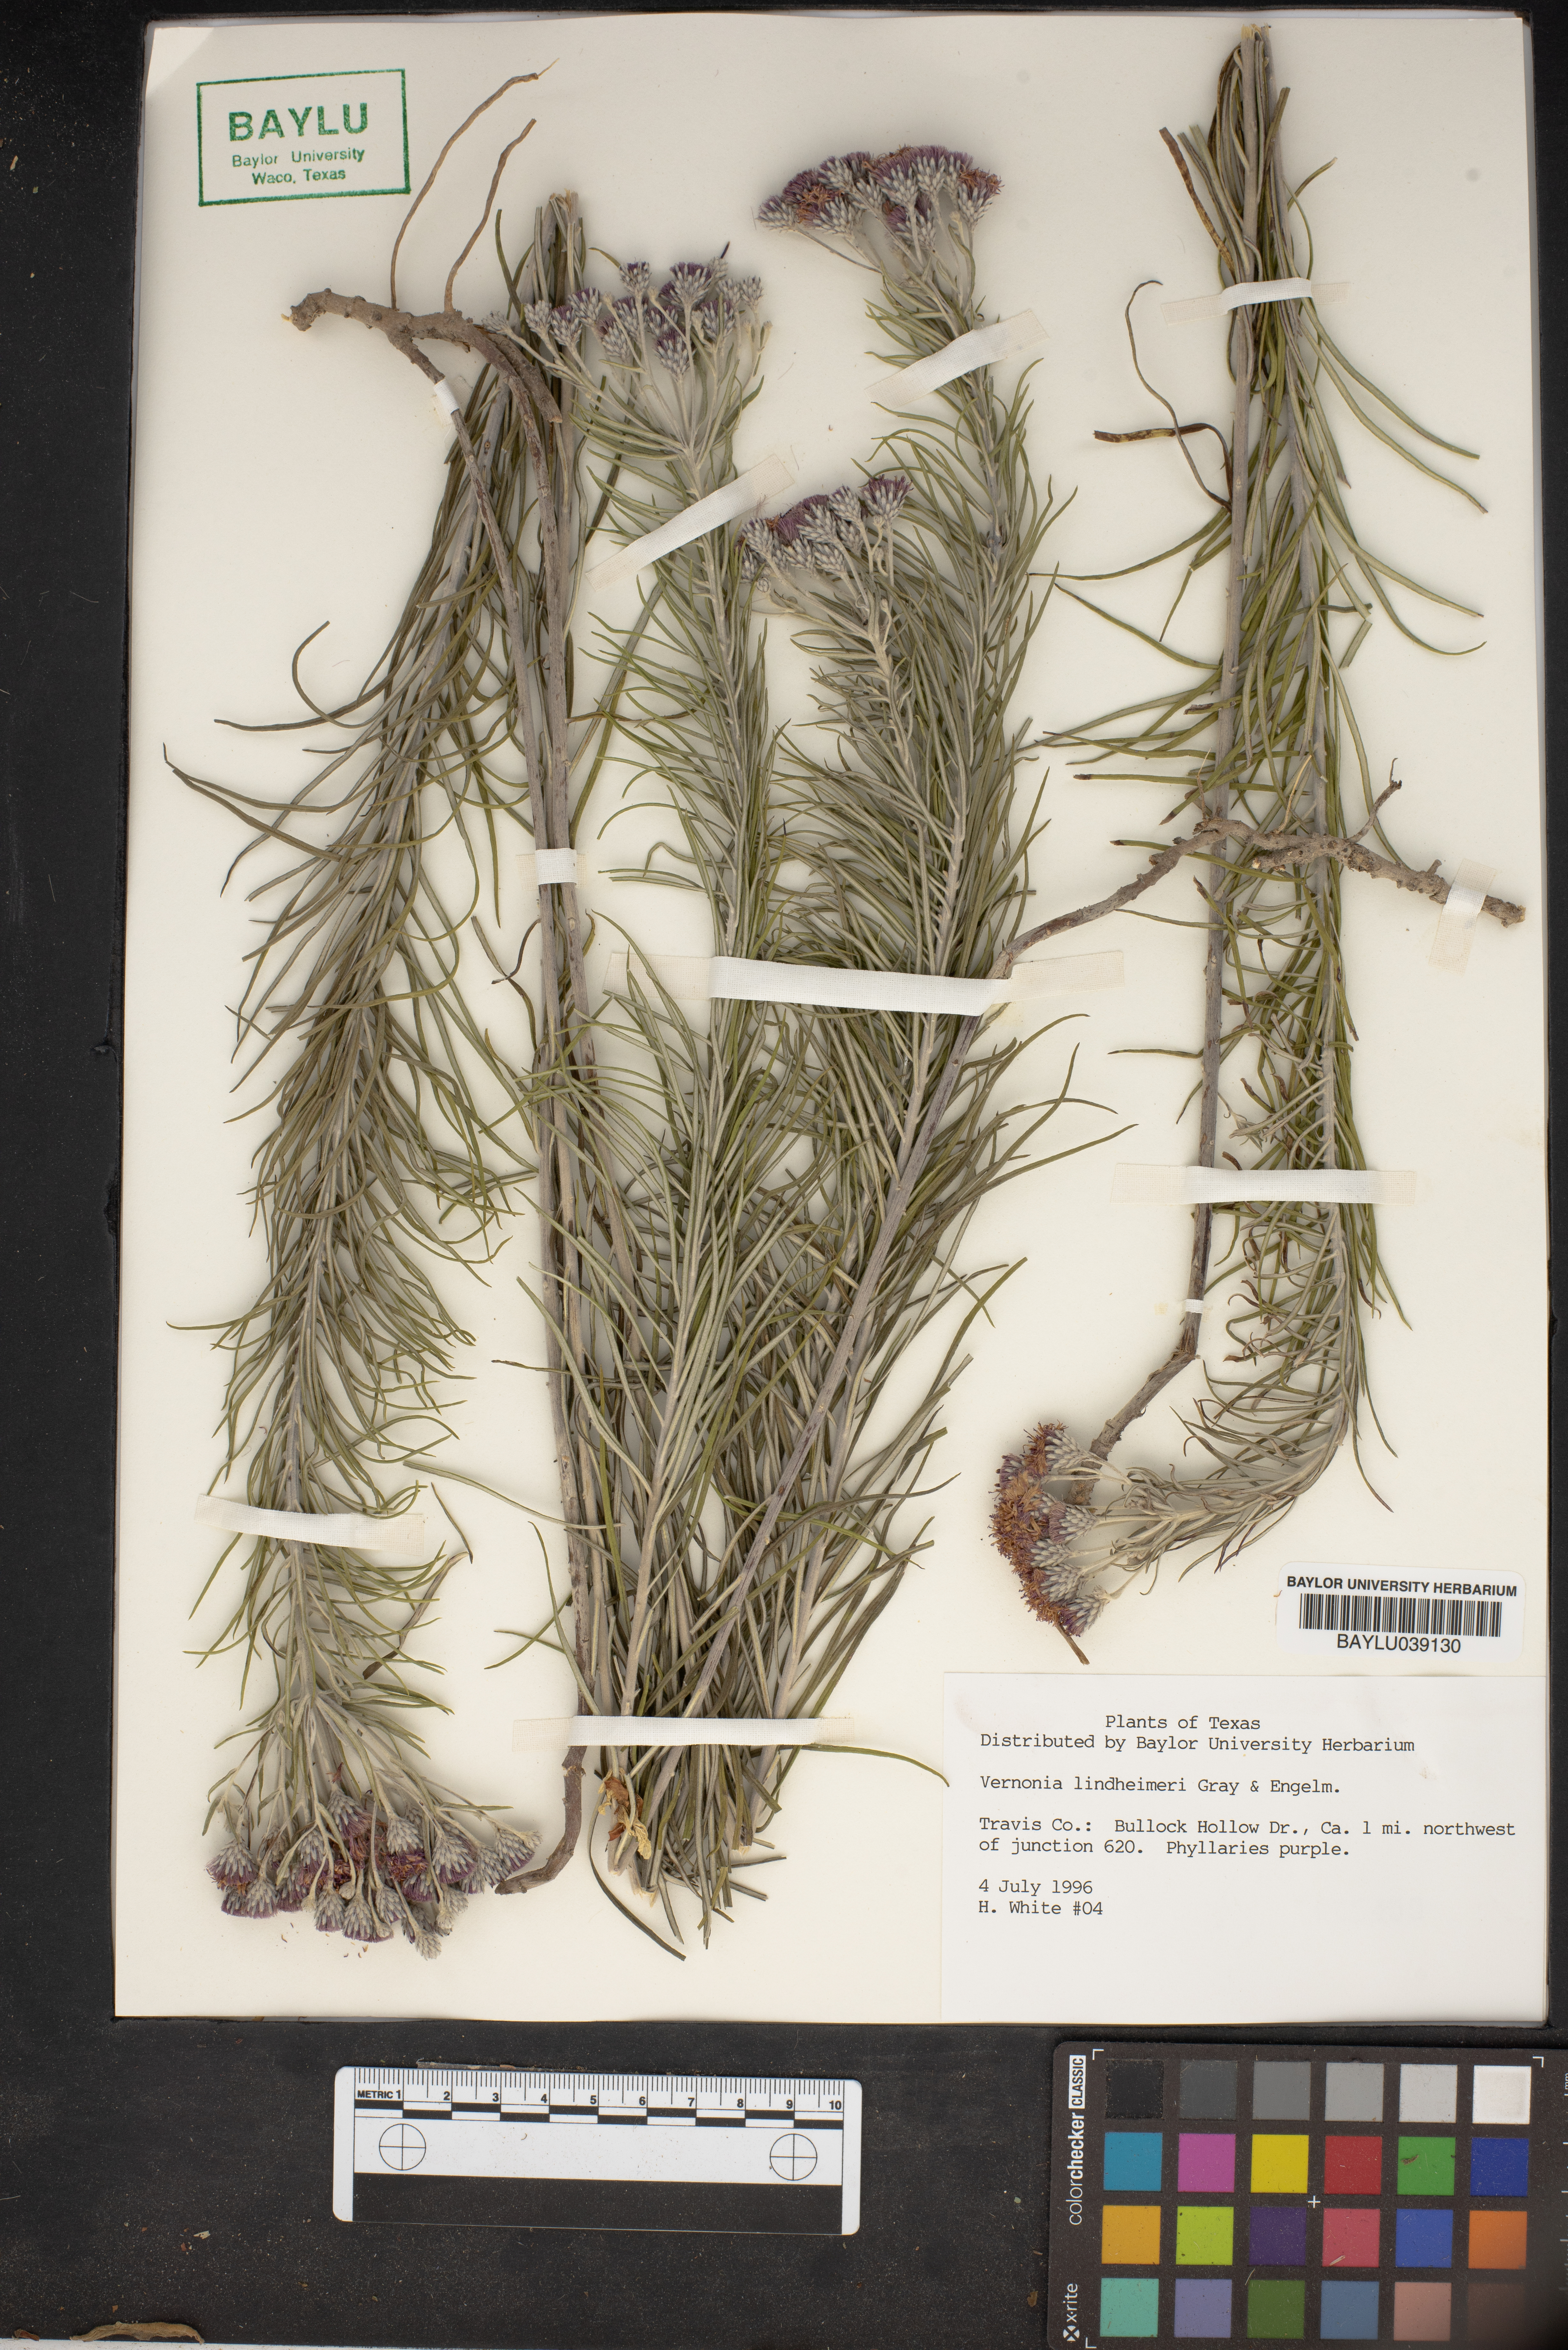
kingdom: Plantae
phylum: Tracheophyta
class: Magnoliopsida
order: Asterales
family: Asteraceae
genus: Vernonia
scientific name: Vernonia lindheimeri
